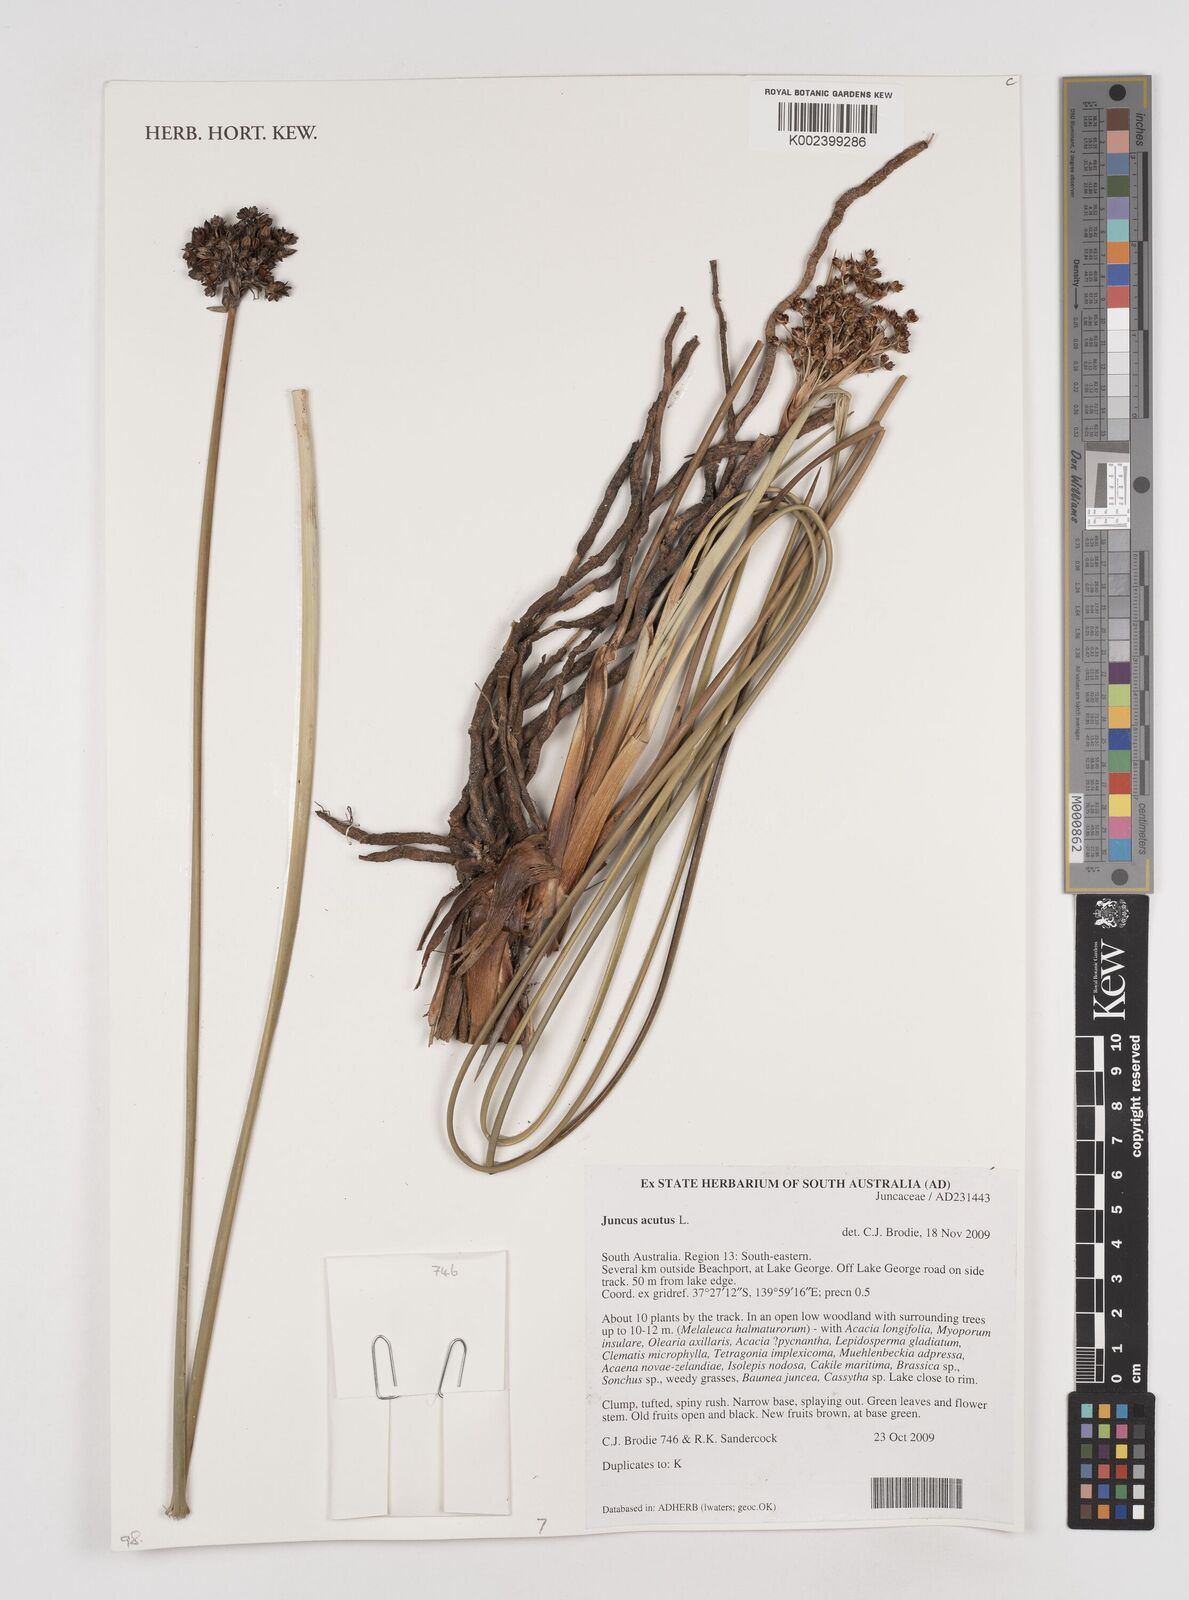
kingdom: Plantae
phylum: Tracheophyta
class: Liliopsida
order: Poales
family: Juncaceae
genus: Juncus
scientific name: Juncus acutus
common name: Sharp rush
